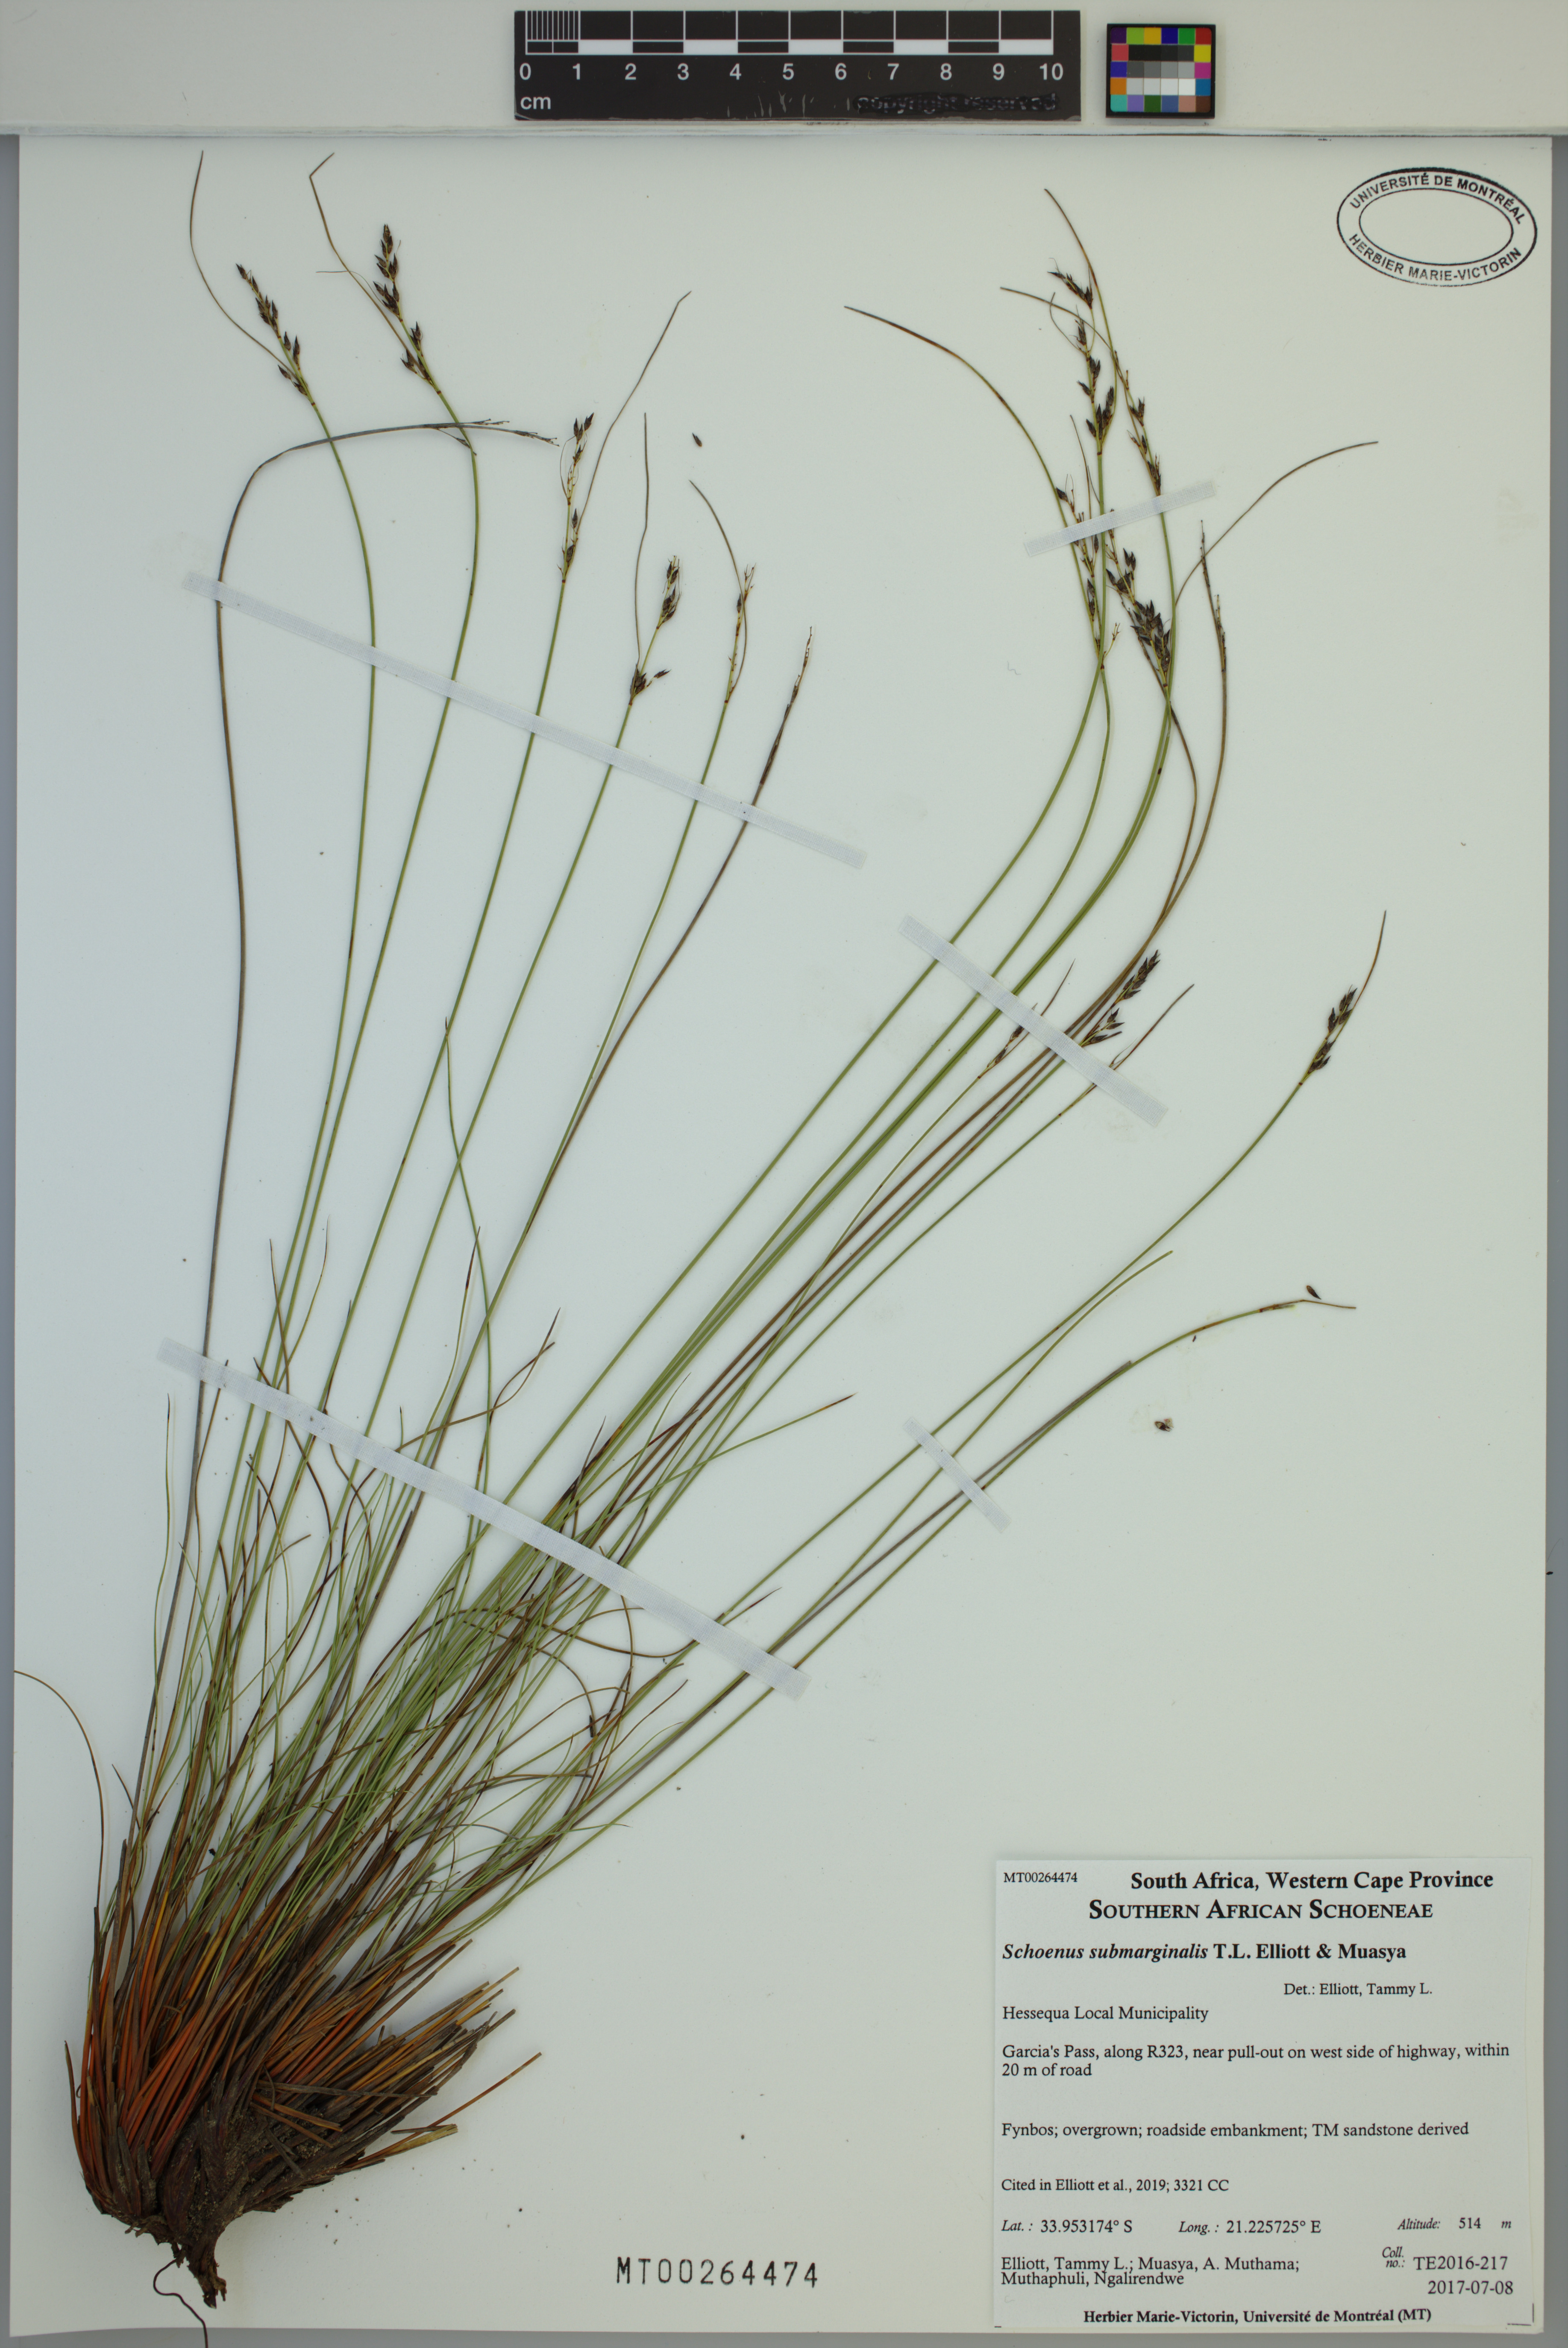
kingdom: Plantae
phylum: Tracheophyta
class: Liliopsida
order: Poales
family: Cyperaceae
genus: Schoenus
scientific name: Schoenus submarginalis
